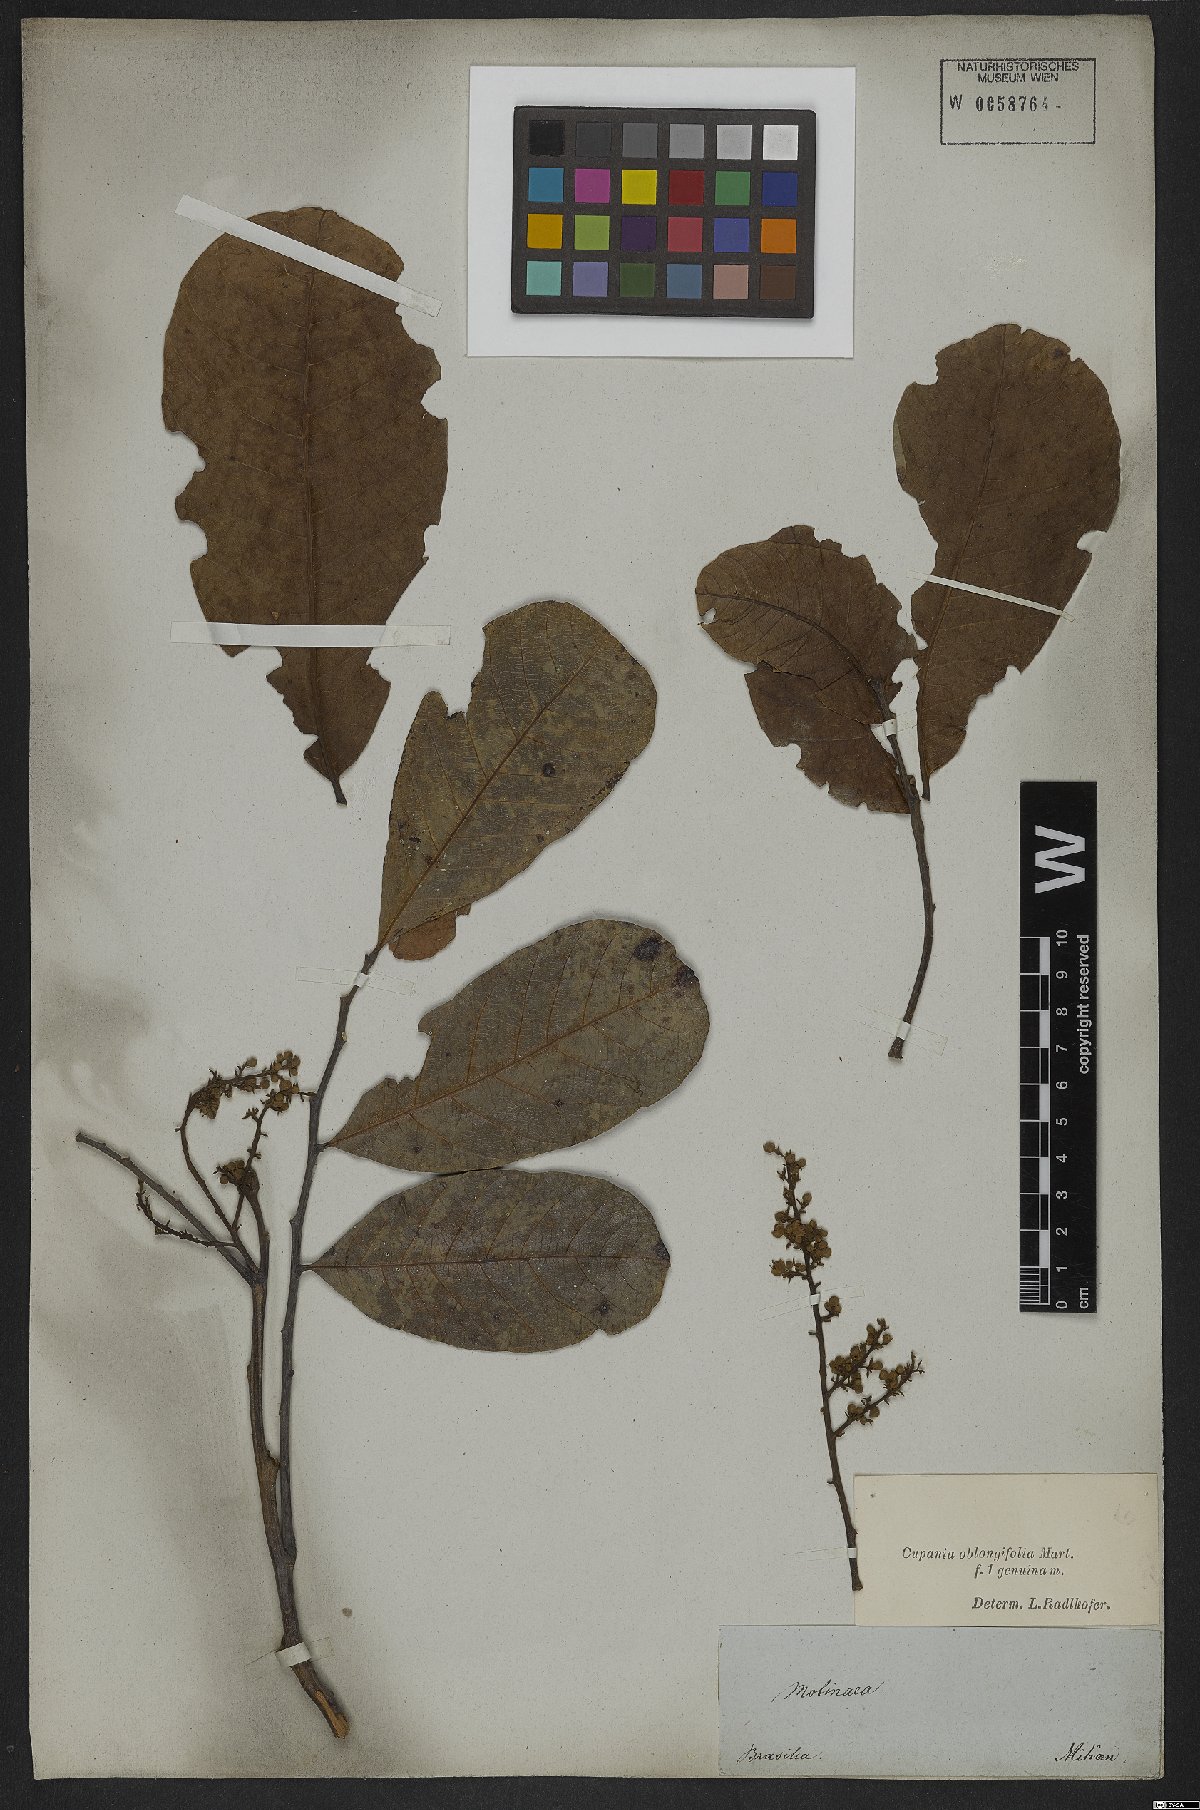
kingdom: Plantae
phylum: Tracheophyta
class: Magnoliopsida
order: Sapindales
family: Sapindaceae
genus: Cupania
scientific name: Cupania oblongifolia
